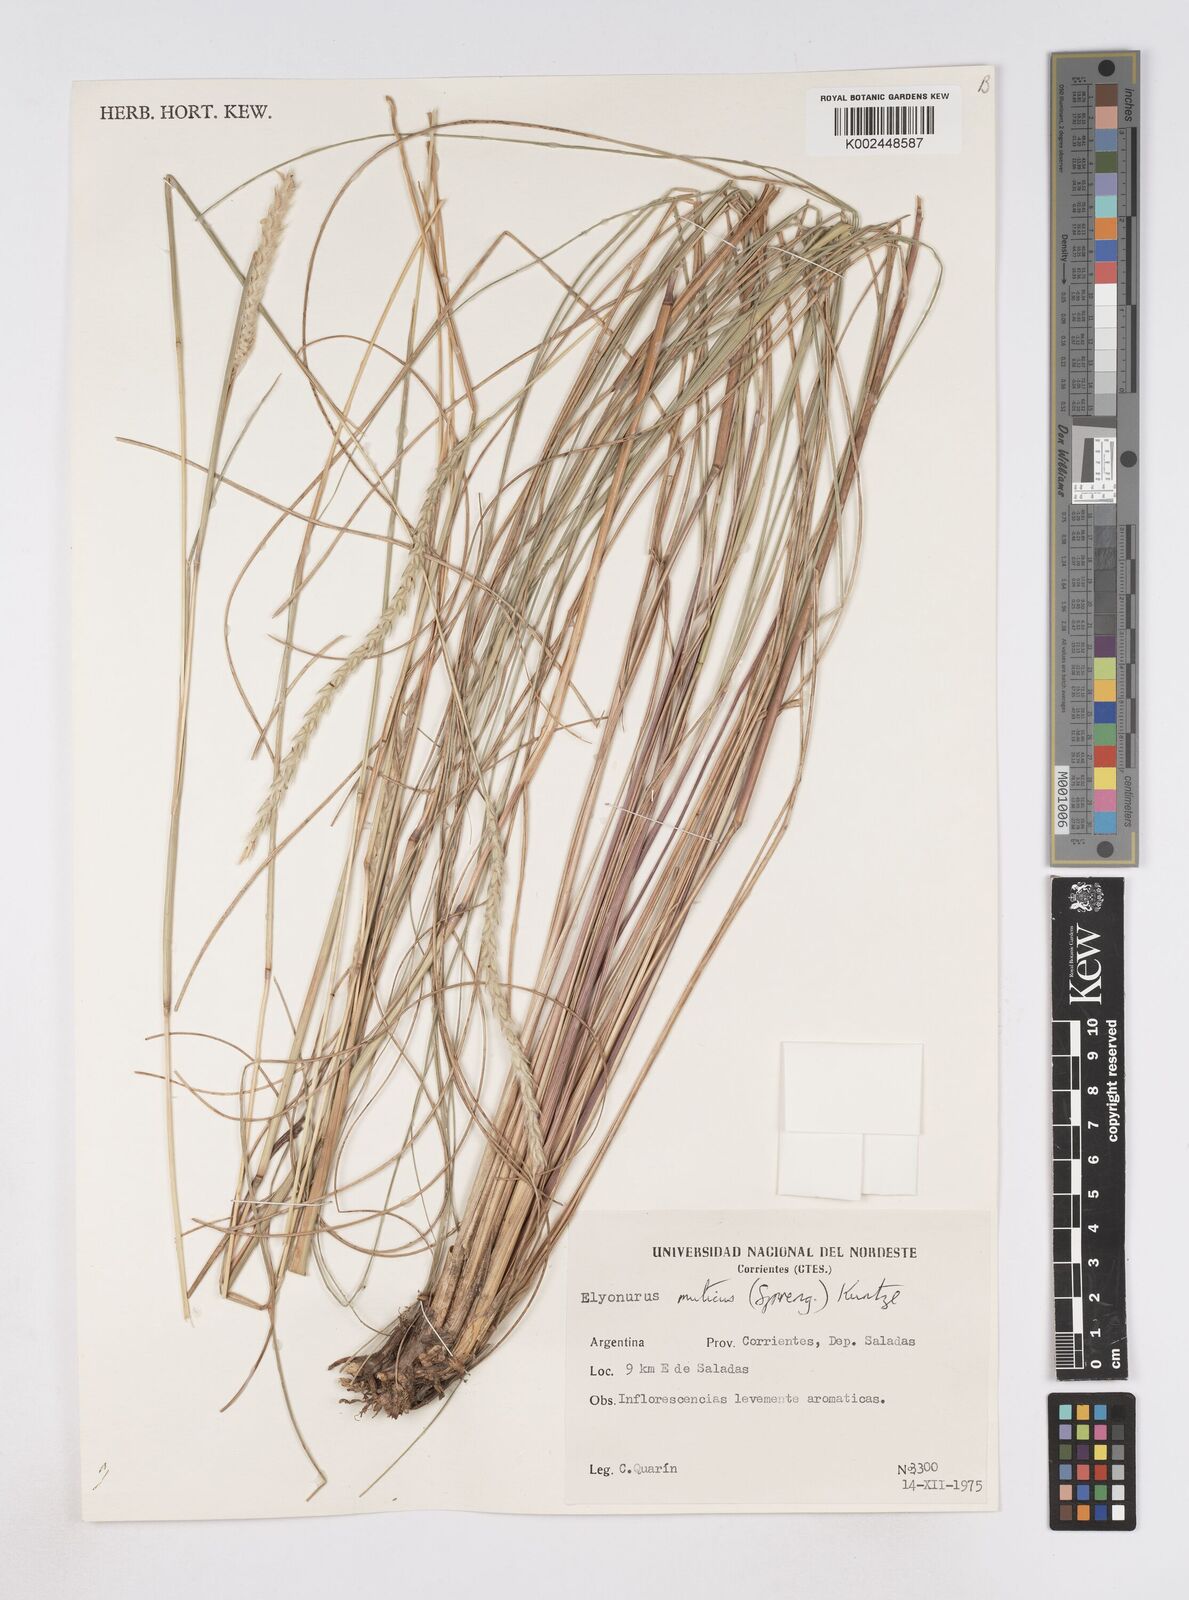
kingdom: Plantae
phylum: Tracheophyta
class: Liliopsida
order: Poales
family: Poaceae
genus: Elionurus
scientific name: Elionurus muticus
